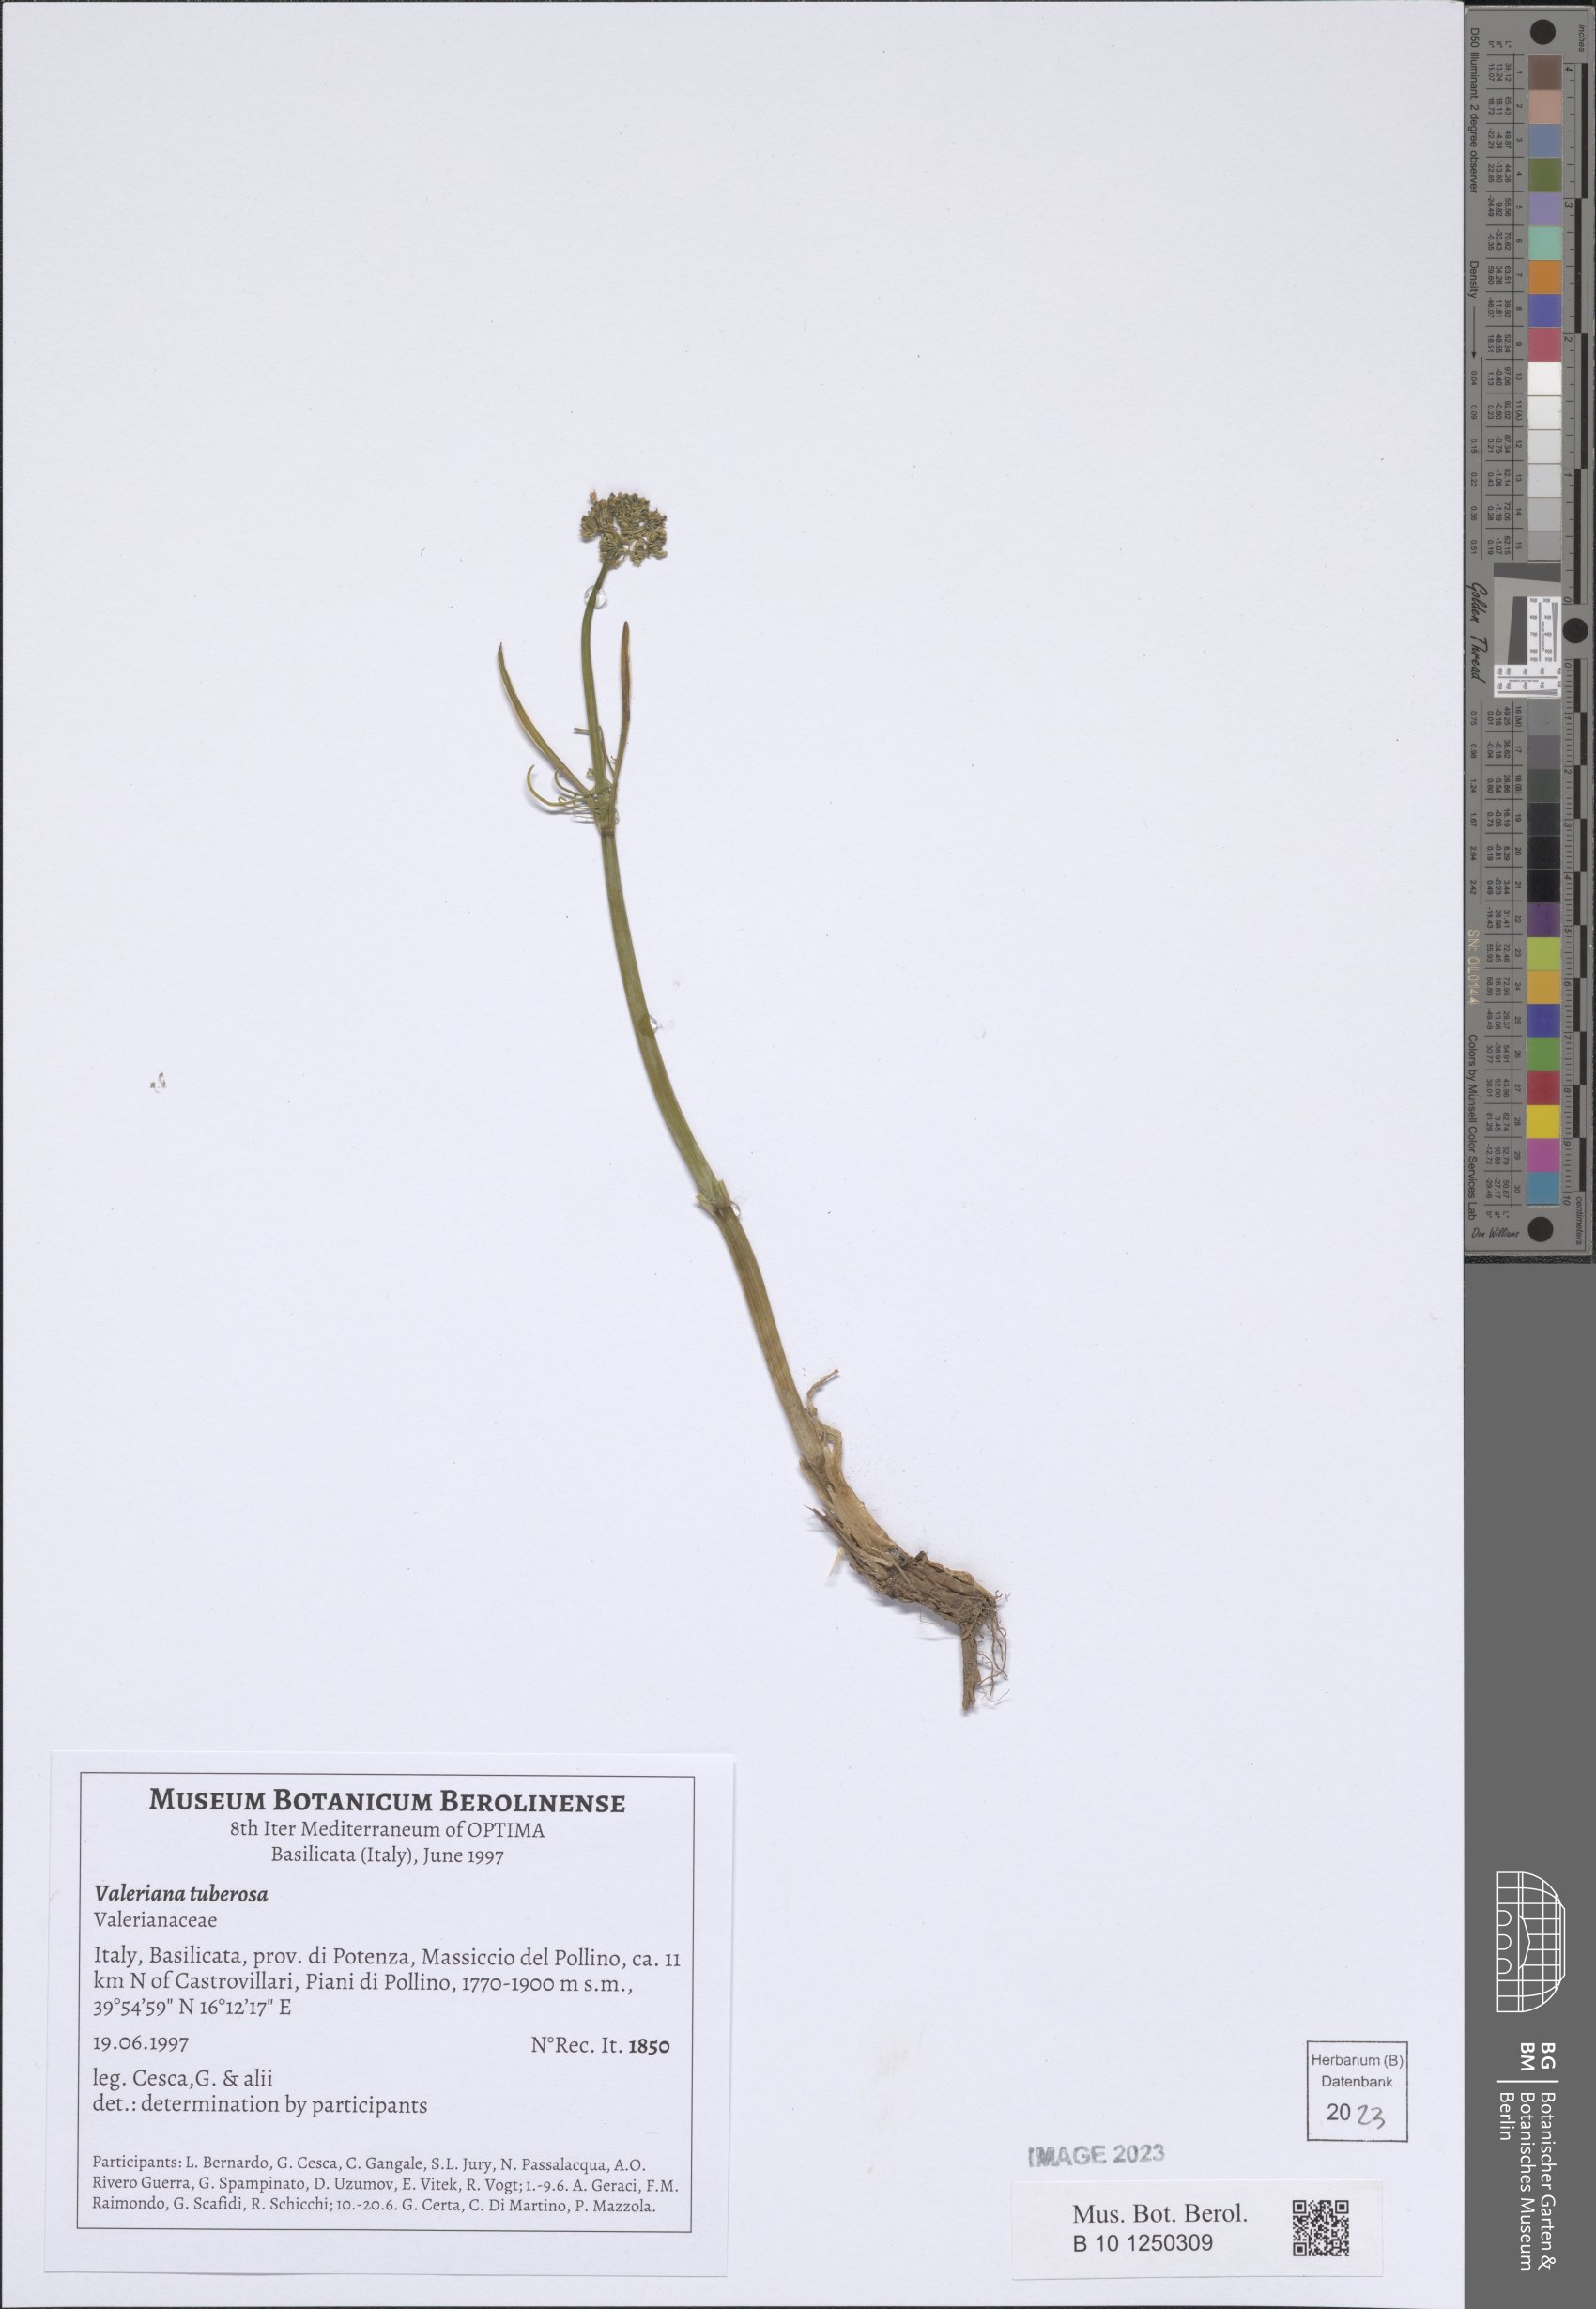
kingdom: Plantae
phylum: Tracheophyta
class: Magnoliopsida
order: Dipsacales
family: Caprifoliaceae
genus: Valeriana
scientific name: Valeriana tuberosa
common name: Tuberous valerian
